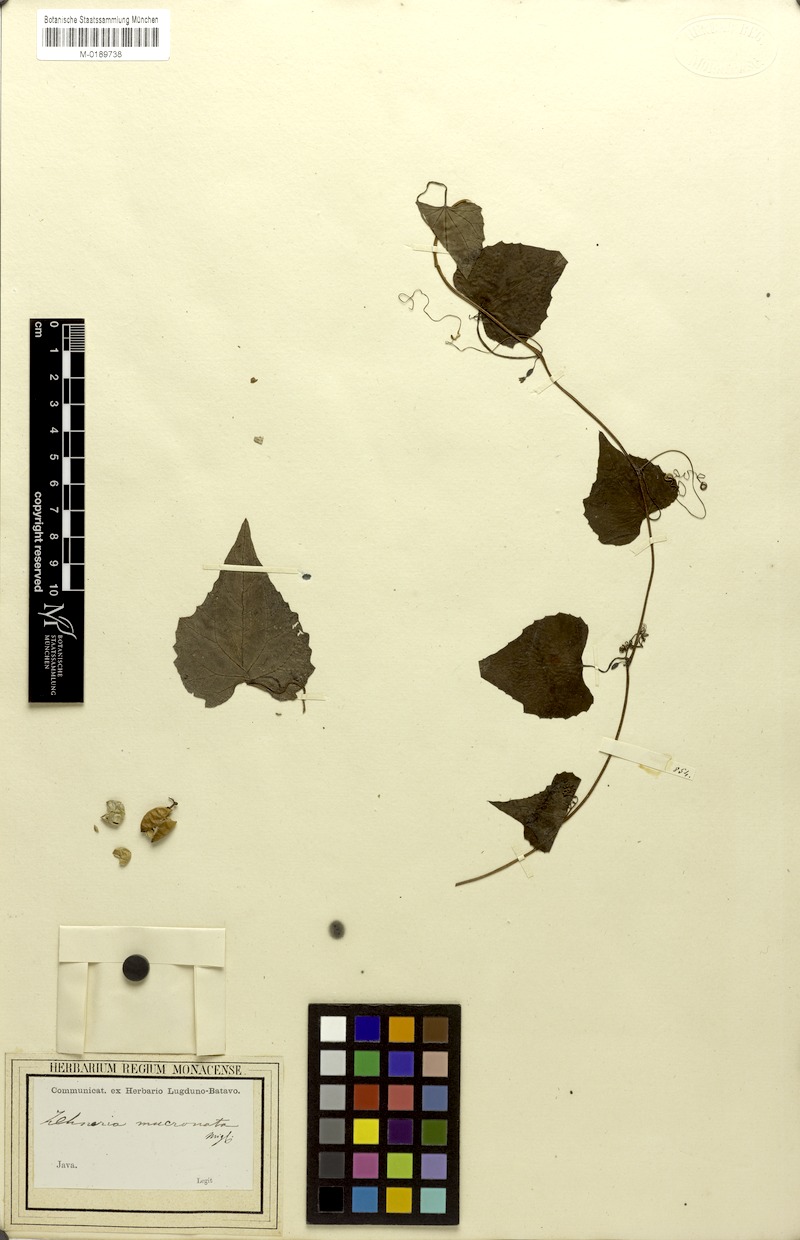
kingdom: Plantae
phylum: Tracheophyta
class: Magnoliopsida
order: Cucurbitales
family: Cucurbitaceae
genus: Zehneria
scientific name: Zehneria mucronata
